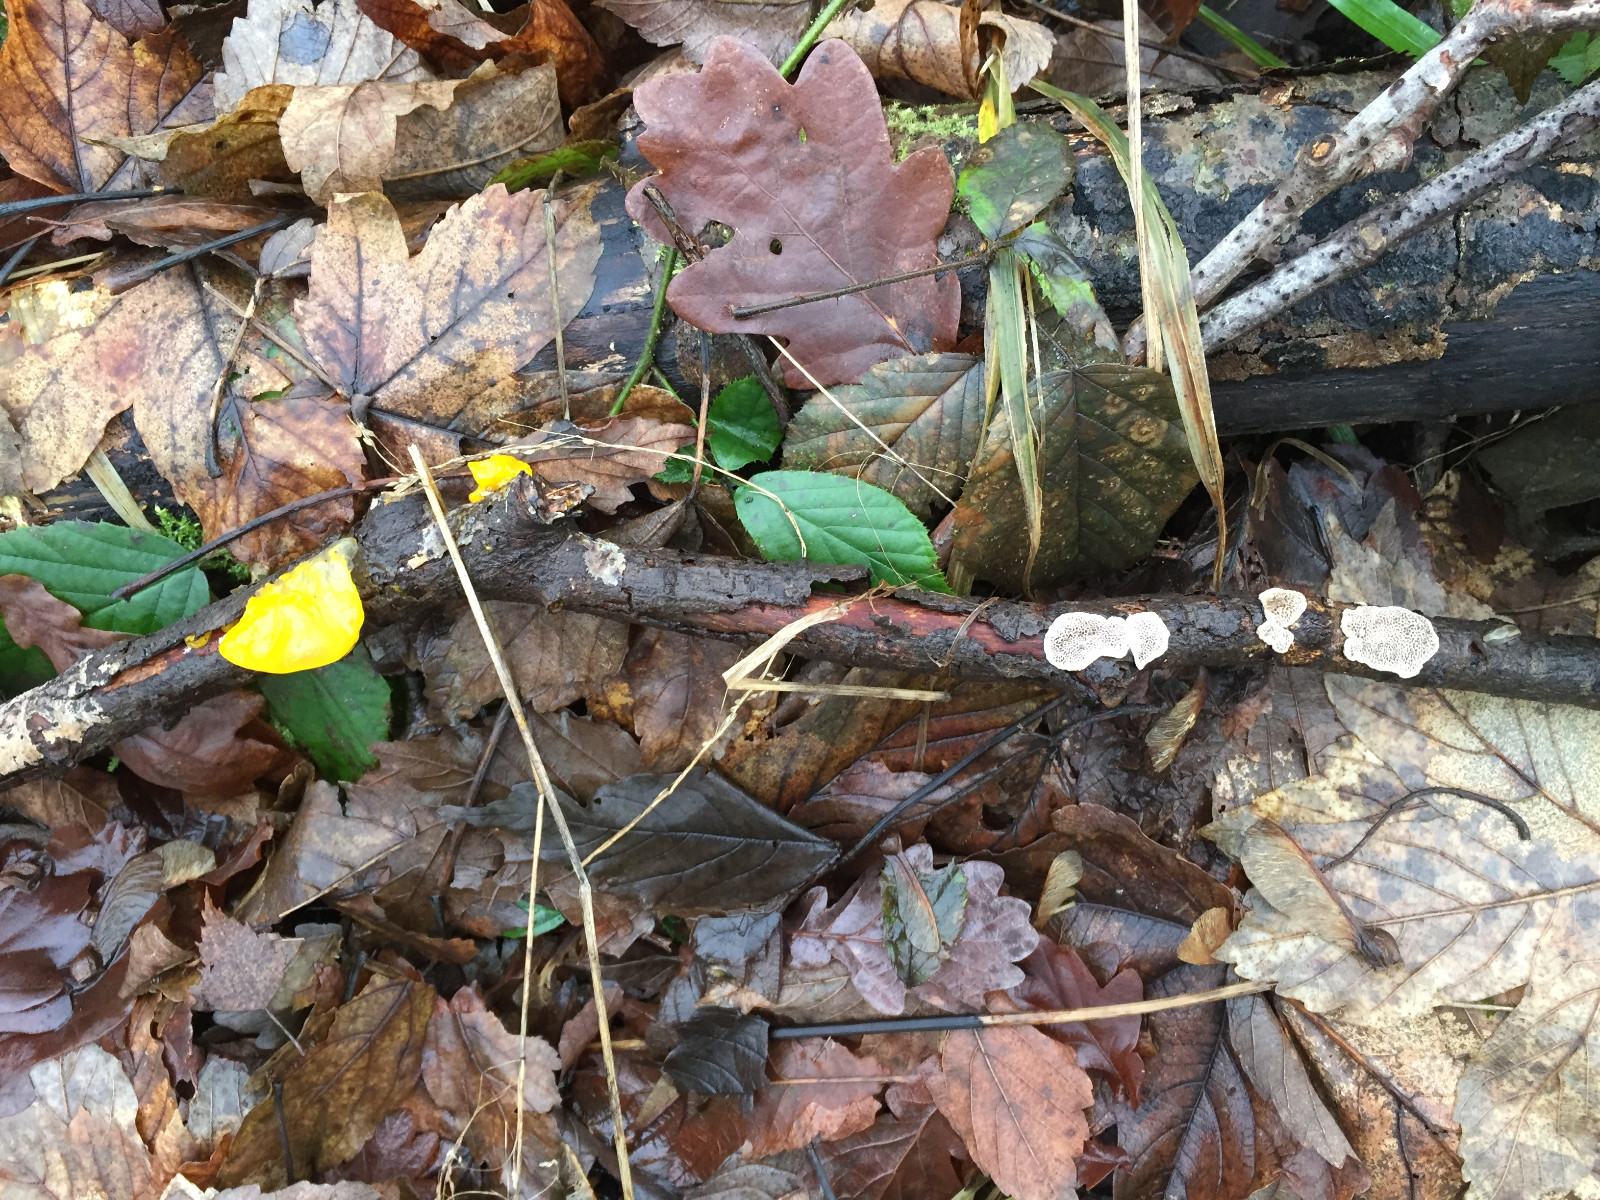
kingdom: Fungi
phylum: Basidiomycota
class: Tremellomycetes
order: Tremellales
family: Tremellaceae
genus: Tremella
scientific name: Tremella mesenterica
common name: gul bævresvamp
